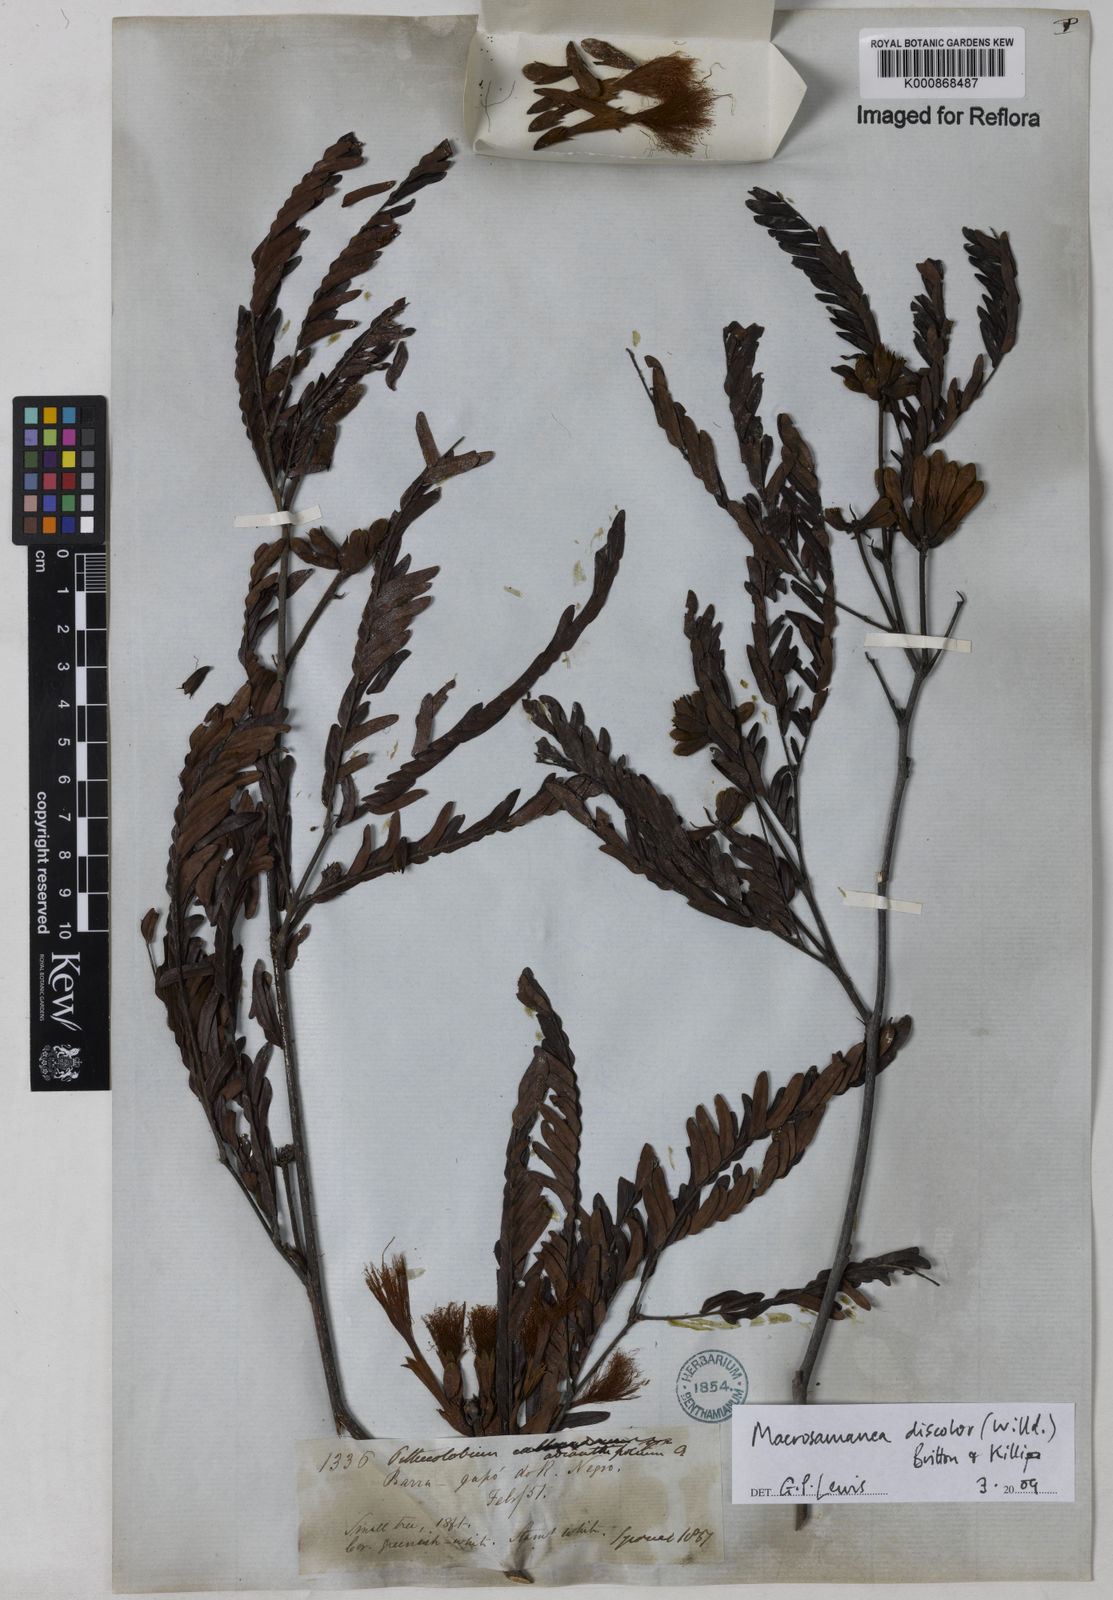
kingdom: Plantae
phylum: Tracheophyta
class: Magnoliopsida
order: Fabales
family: Fabaceae
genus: Macrosamanea
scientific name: Macrosamanea
